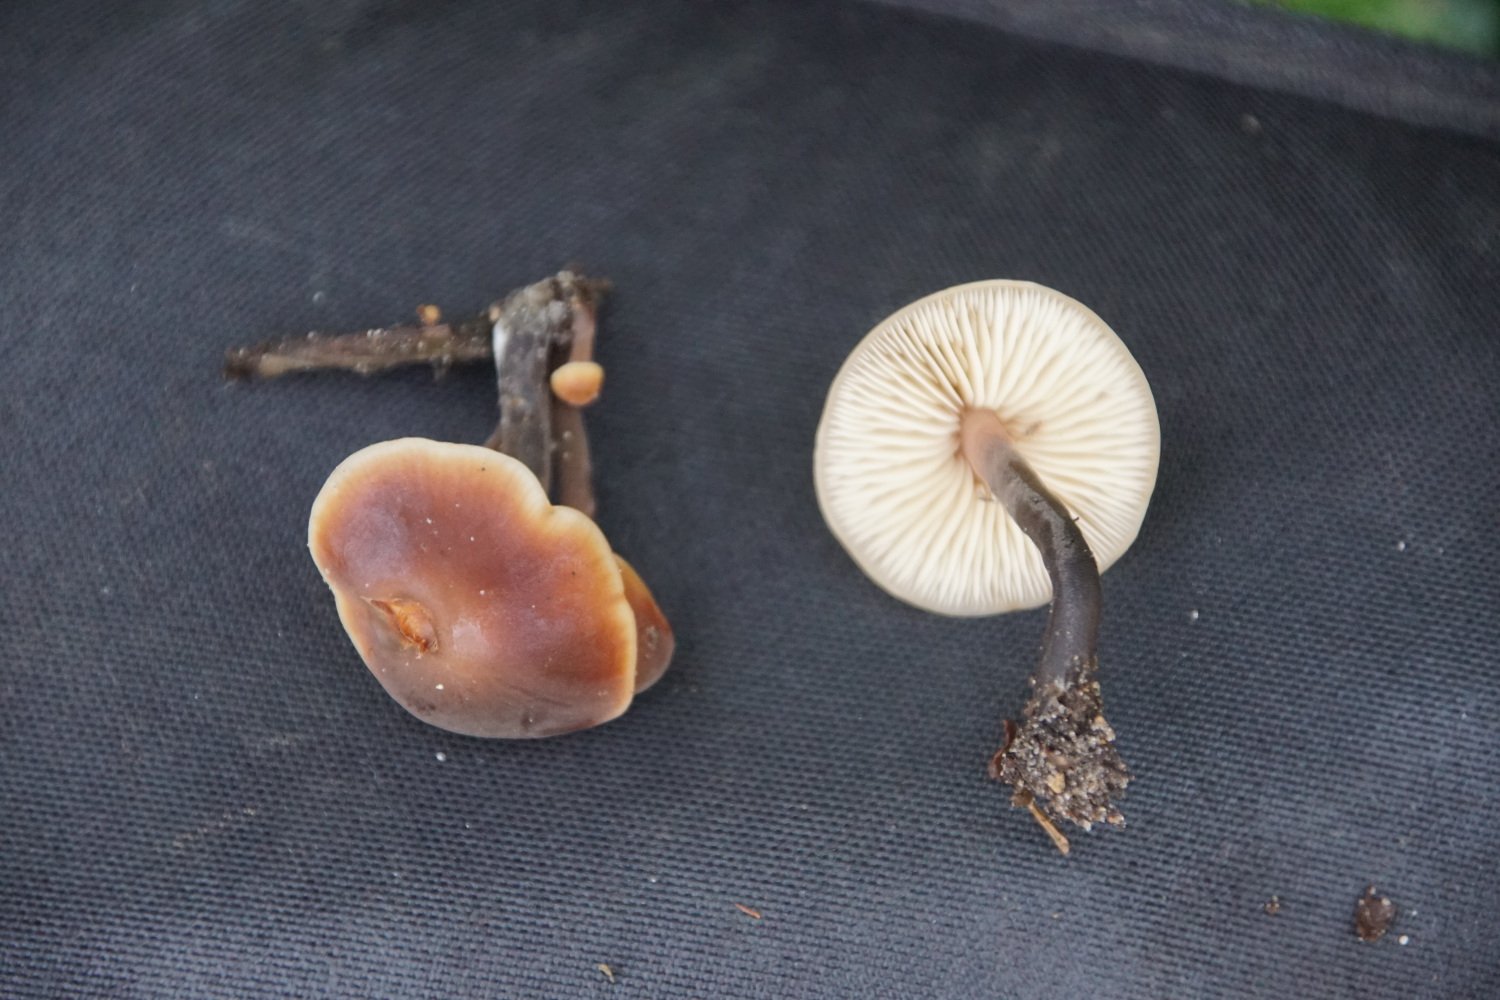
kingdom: Fungi
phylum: Basidiomycota
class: Agaricomycetes
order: Agaricales
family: Macrocystidiaceae
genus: Macrocystidia
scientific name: Macrocystidia cucumis
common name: agurkehat
